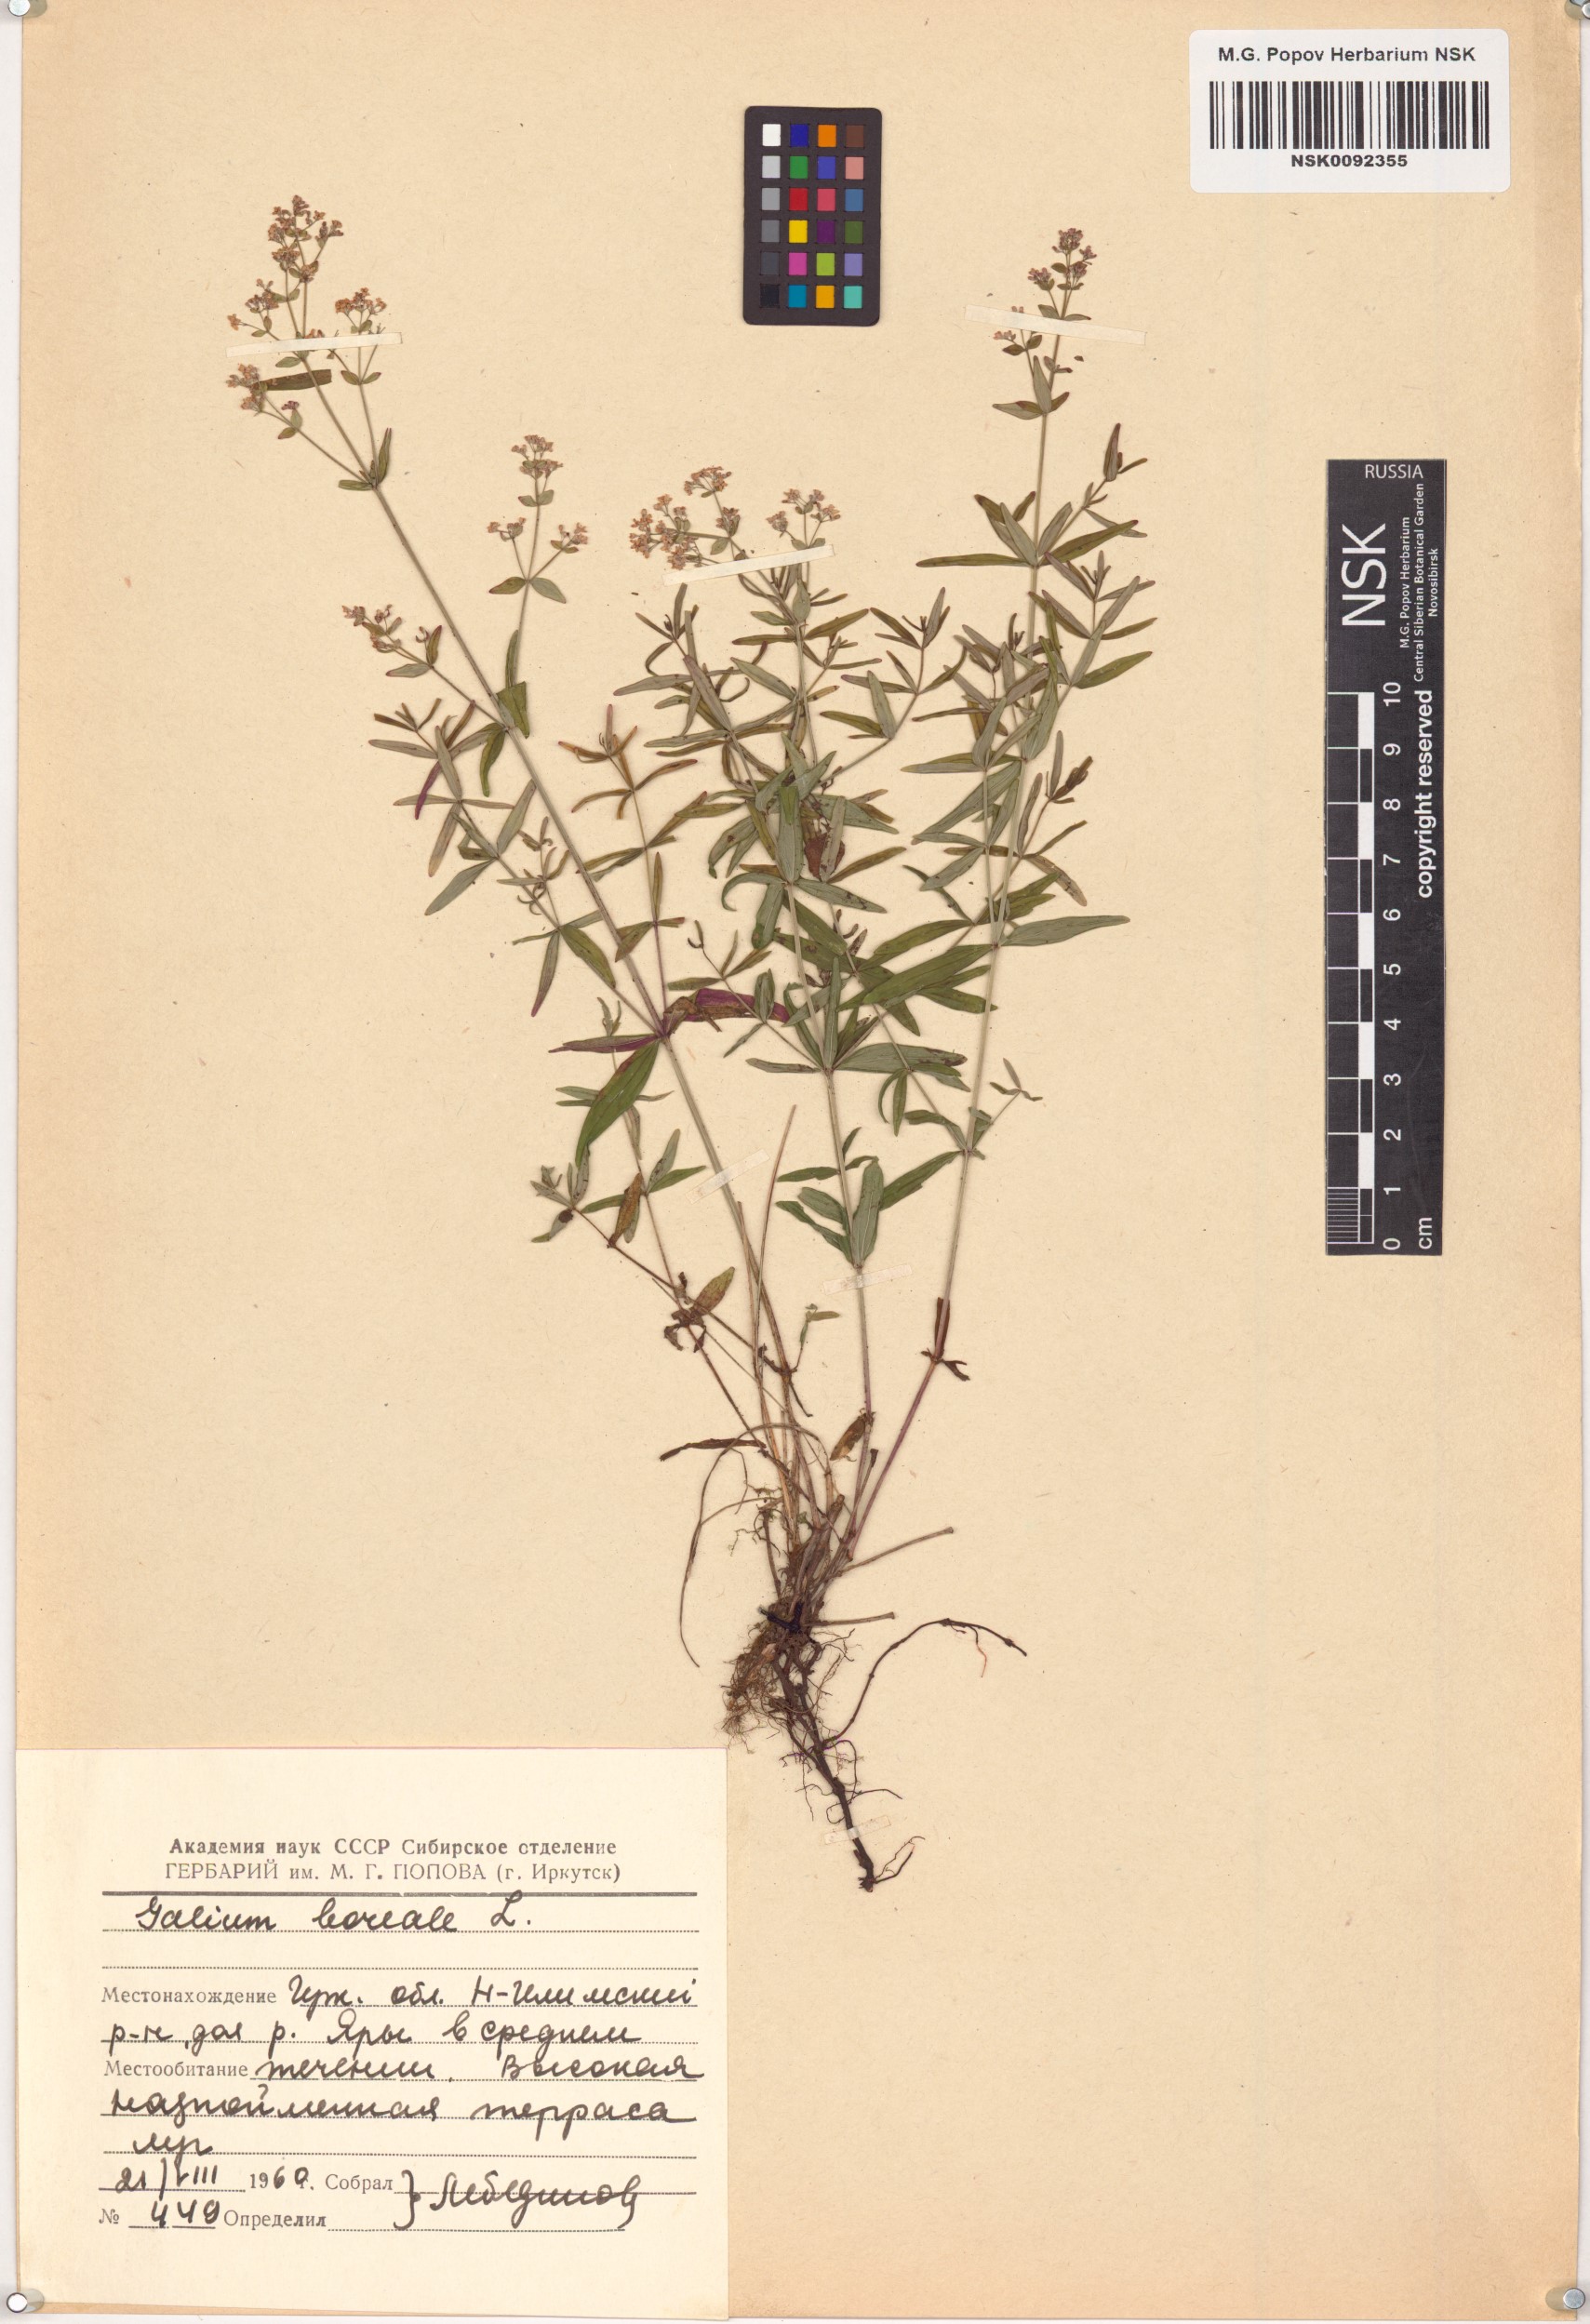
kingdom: Plantae
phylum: Tracheophyta
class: Magnoliopsida
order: Gentianales
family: Rubiaceae
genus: Galium
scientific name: Galium boreale
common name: Northern bedstraw
